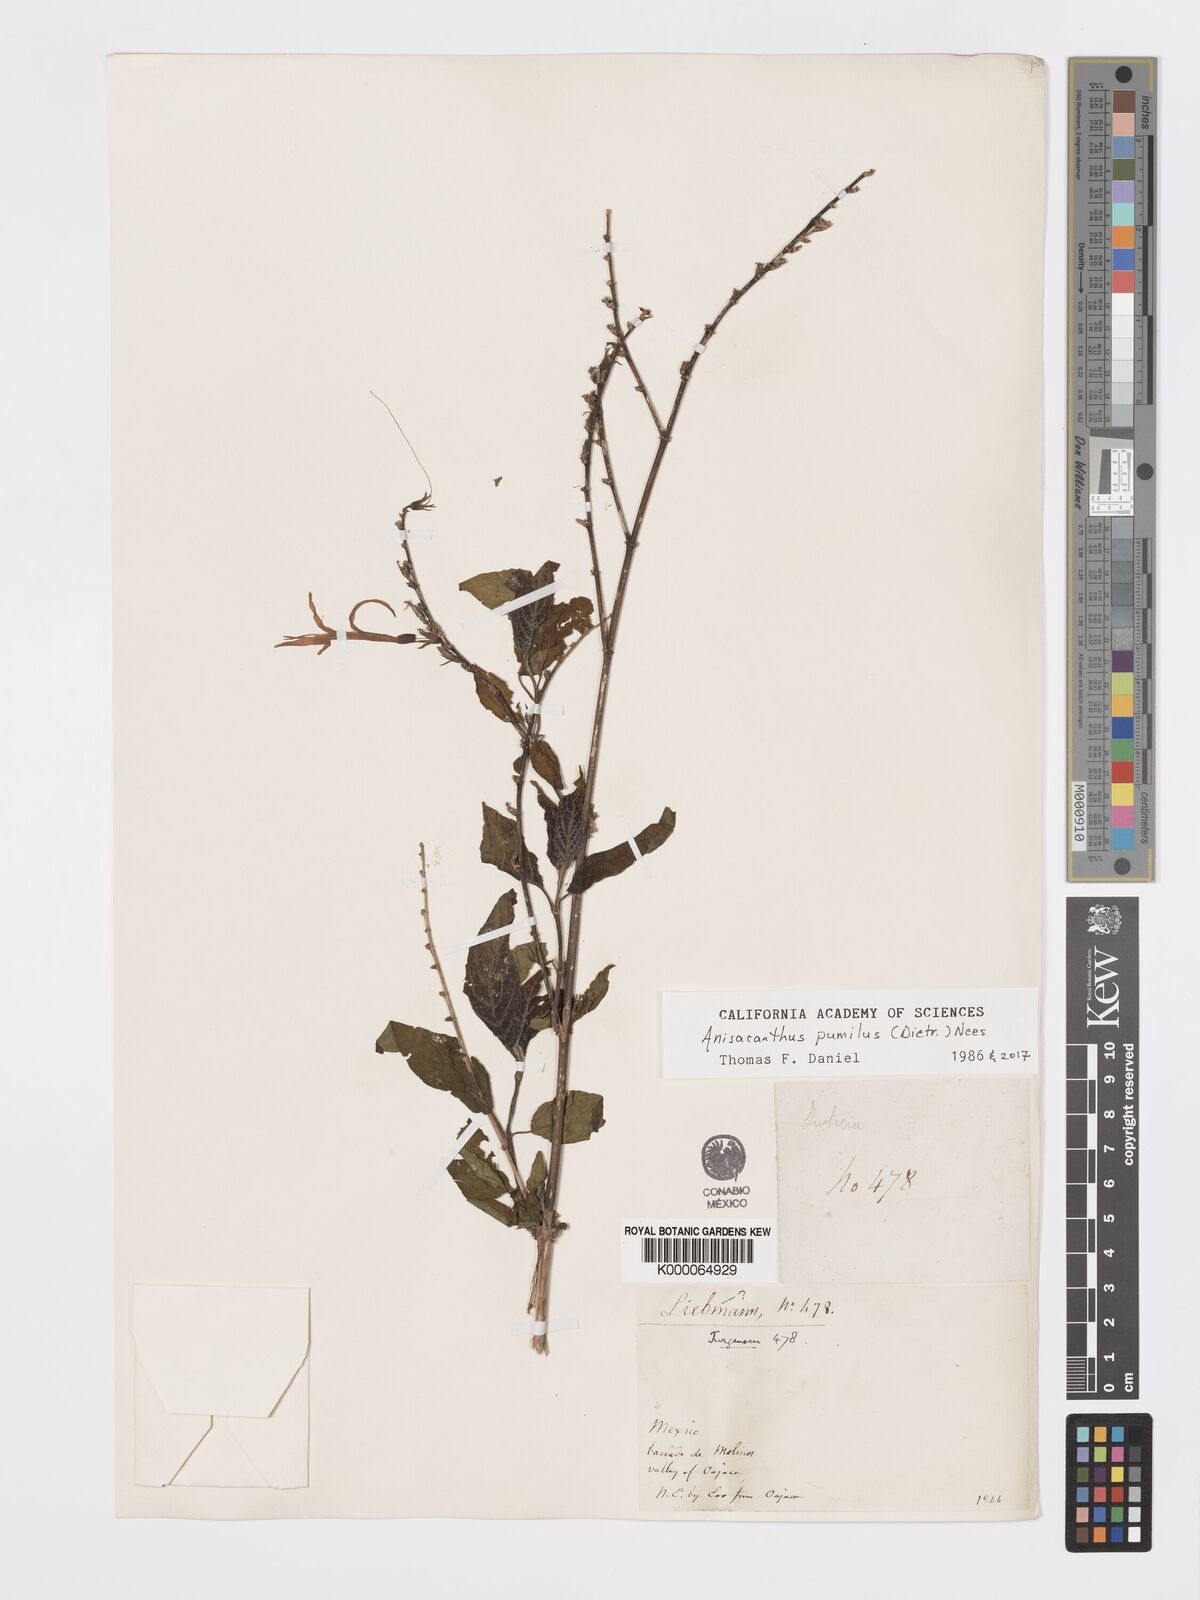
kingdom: Plantae
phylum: Tracheophyta
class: Magnoliopsida
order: Lamiales
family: Acanthaceae
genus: Anisacanthus
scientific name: Anisacanthus
